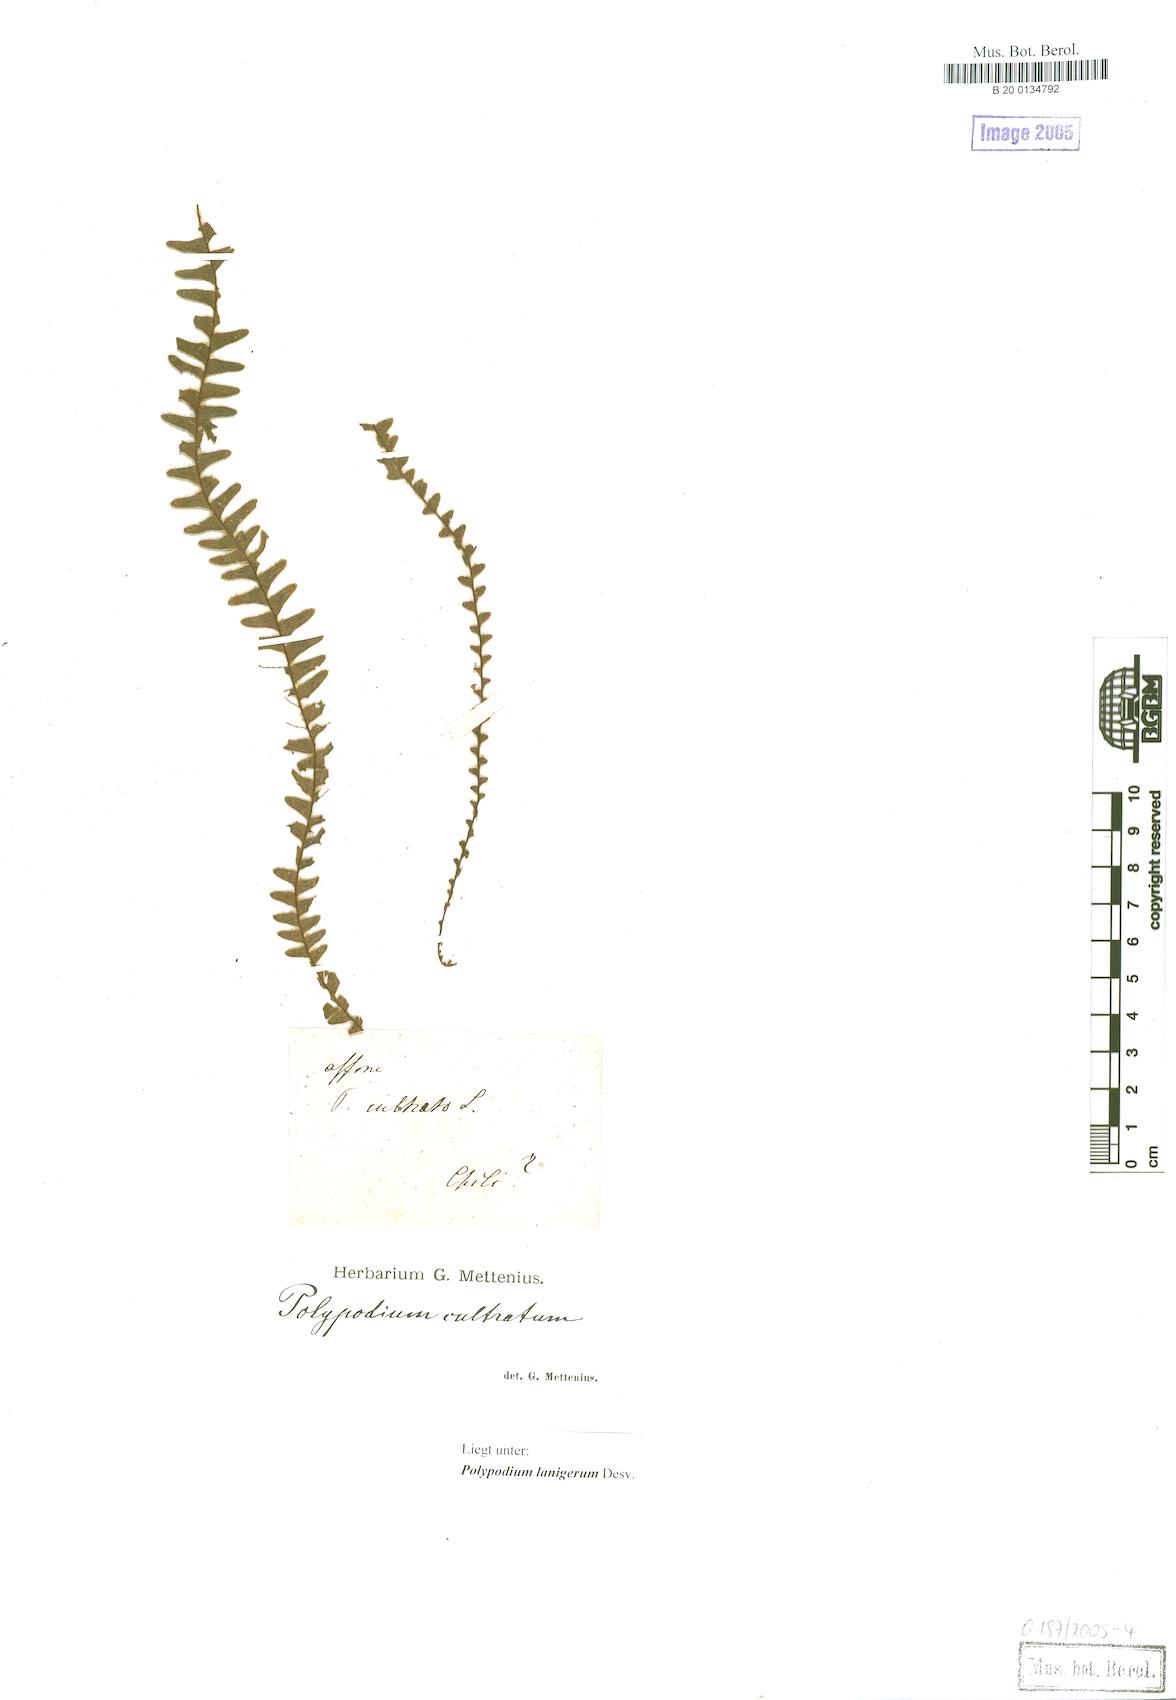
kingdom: Plantae
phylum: Tracheophyta
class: Polypodiopsida
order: Polypodiales
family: Polypodiaceae
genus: Alansmia
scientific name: Alansmia lanigera
